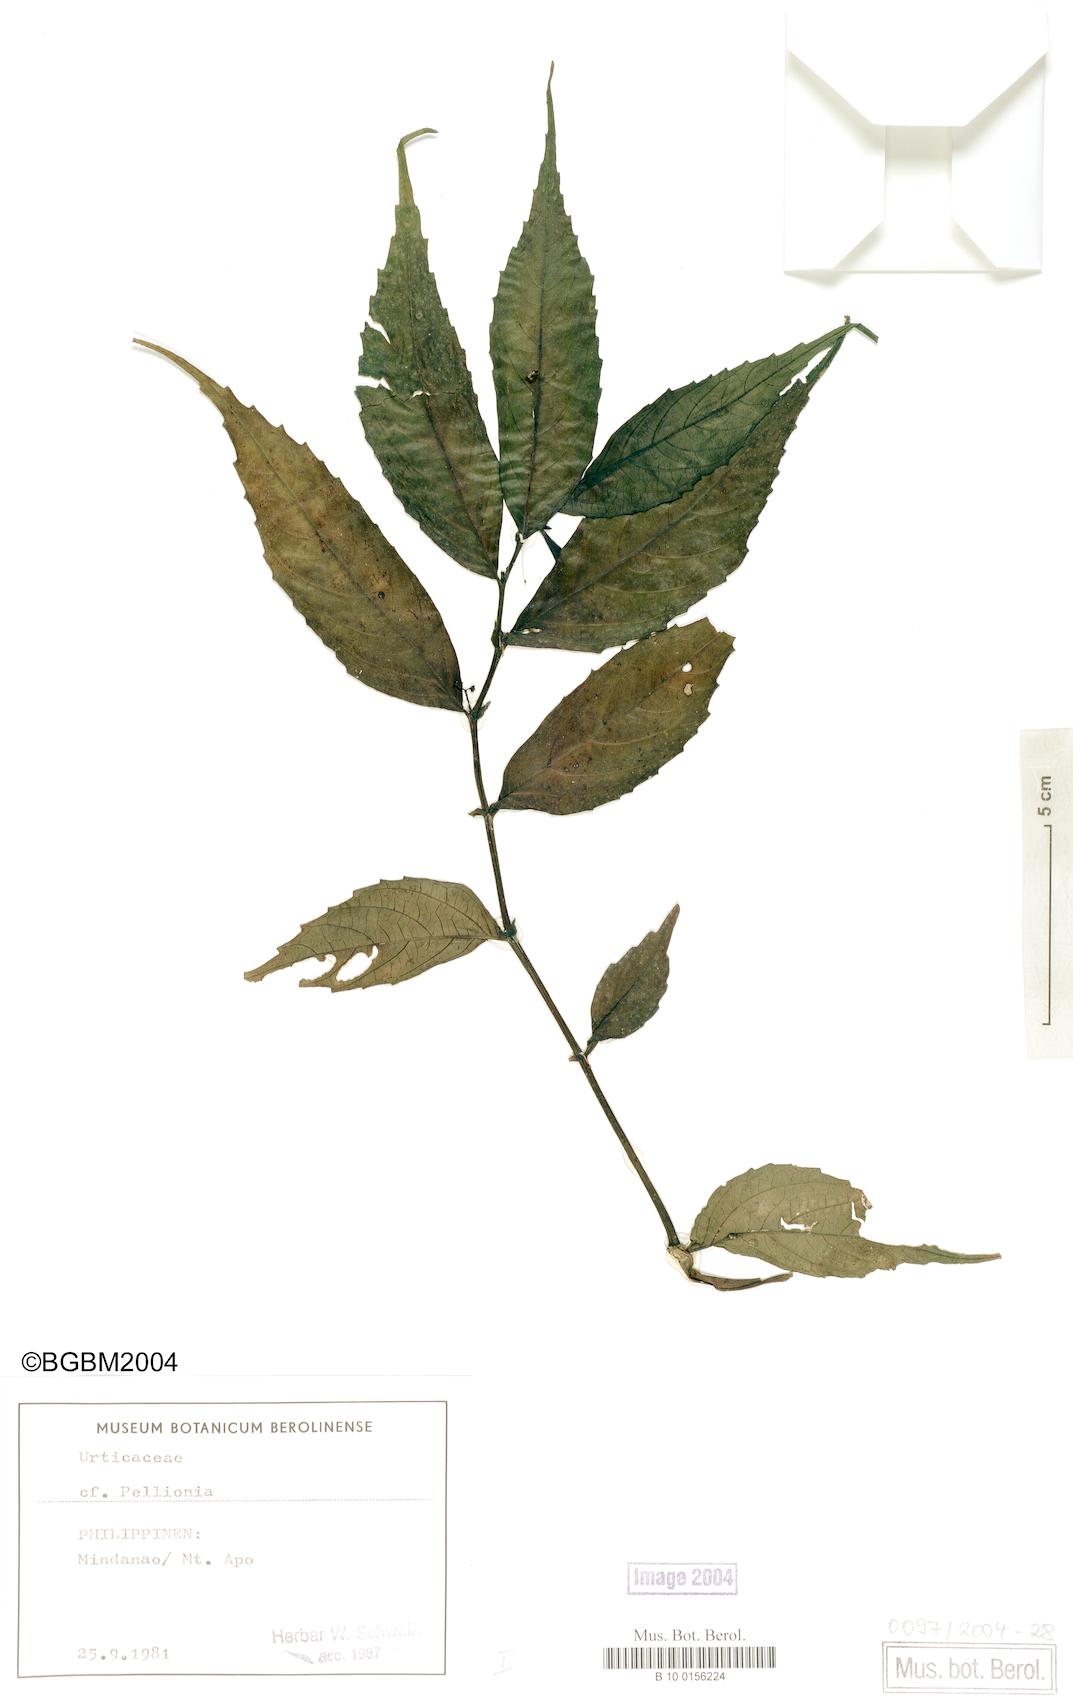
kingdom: Plantae
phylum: Tracheophyta
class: Magnoliopsida
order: Rosales
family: Urticaceae
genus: Pellionia
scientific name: Pellionia
